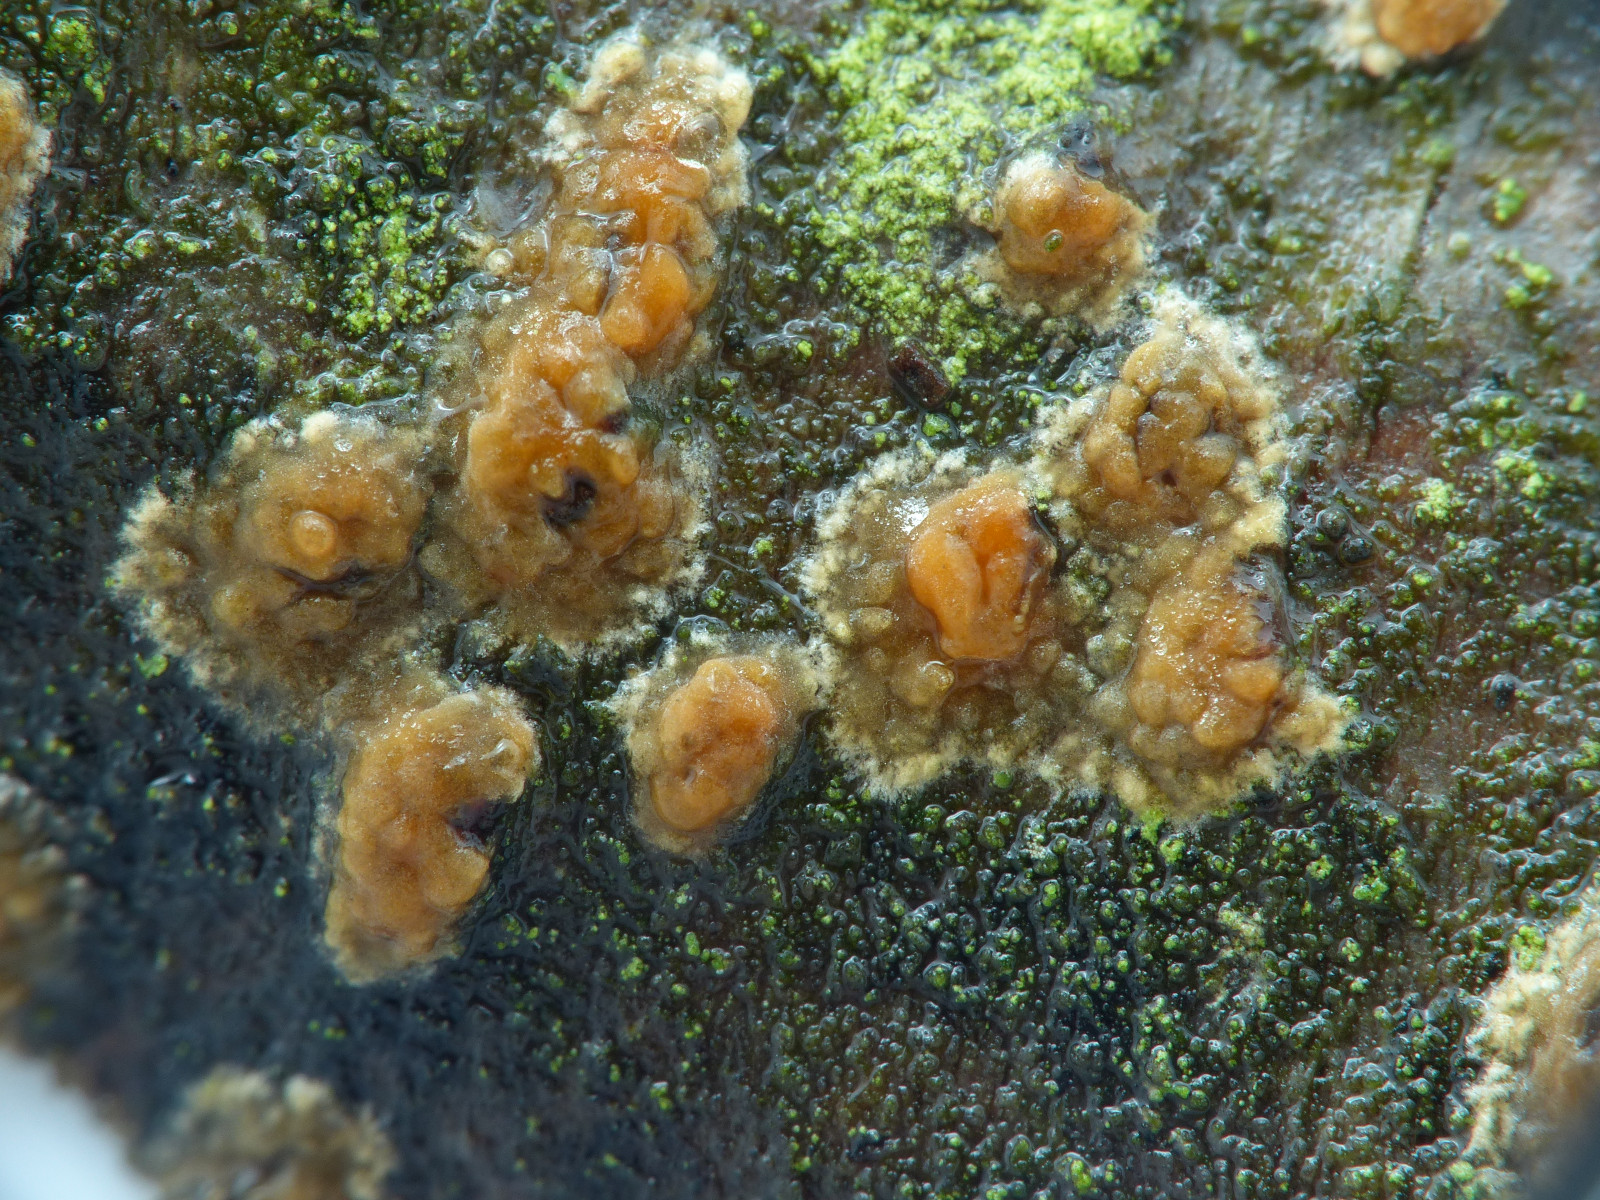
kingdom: Fungi
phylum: Basidiomycota
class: Agaricomycetes
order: Corticiales
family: Corticiaceae
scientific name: Corticiaceae
